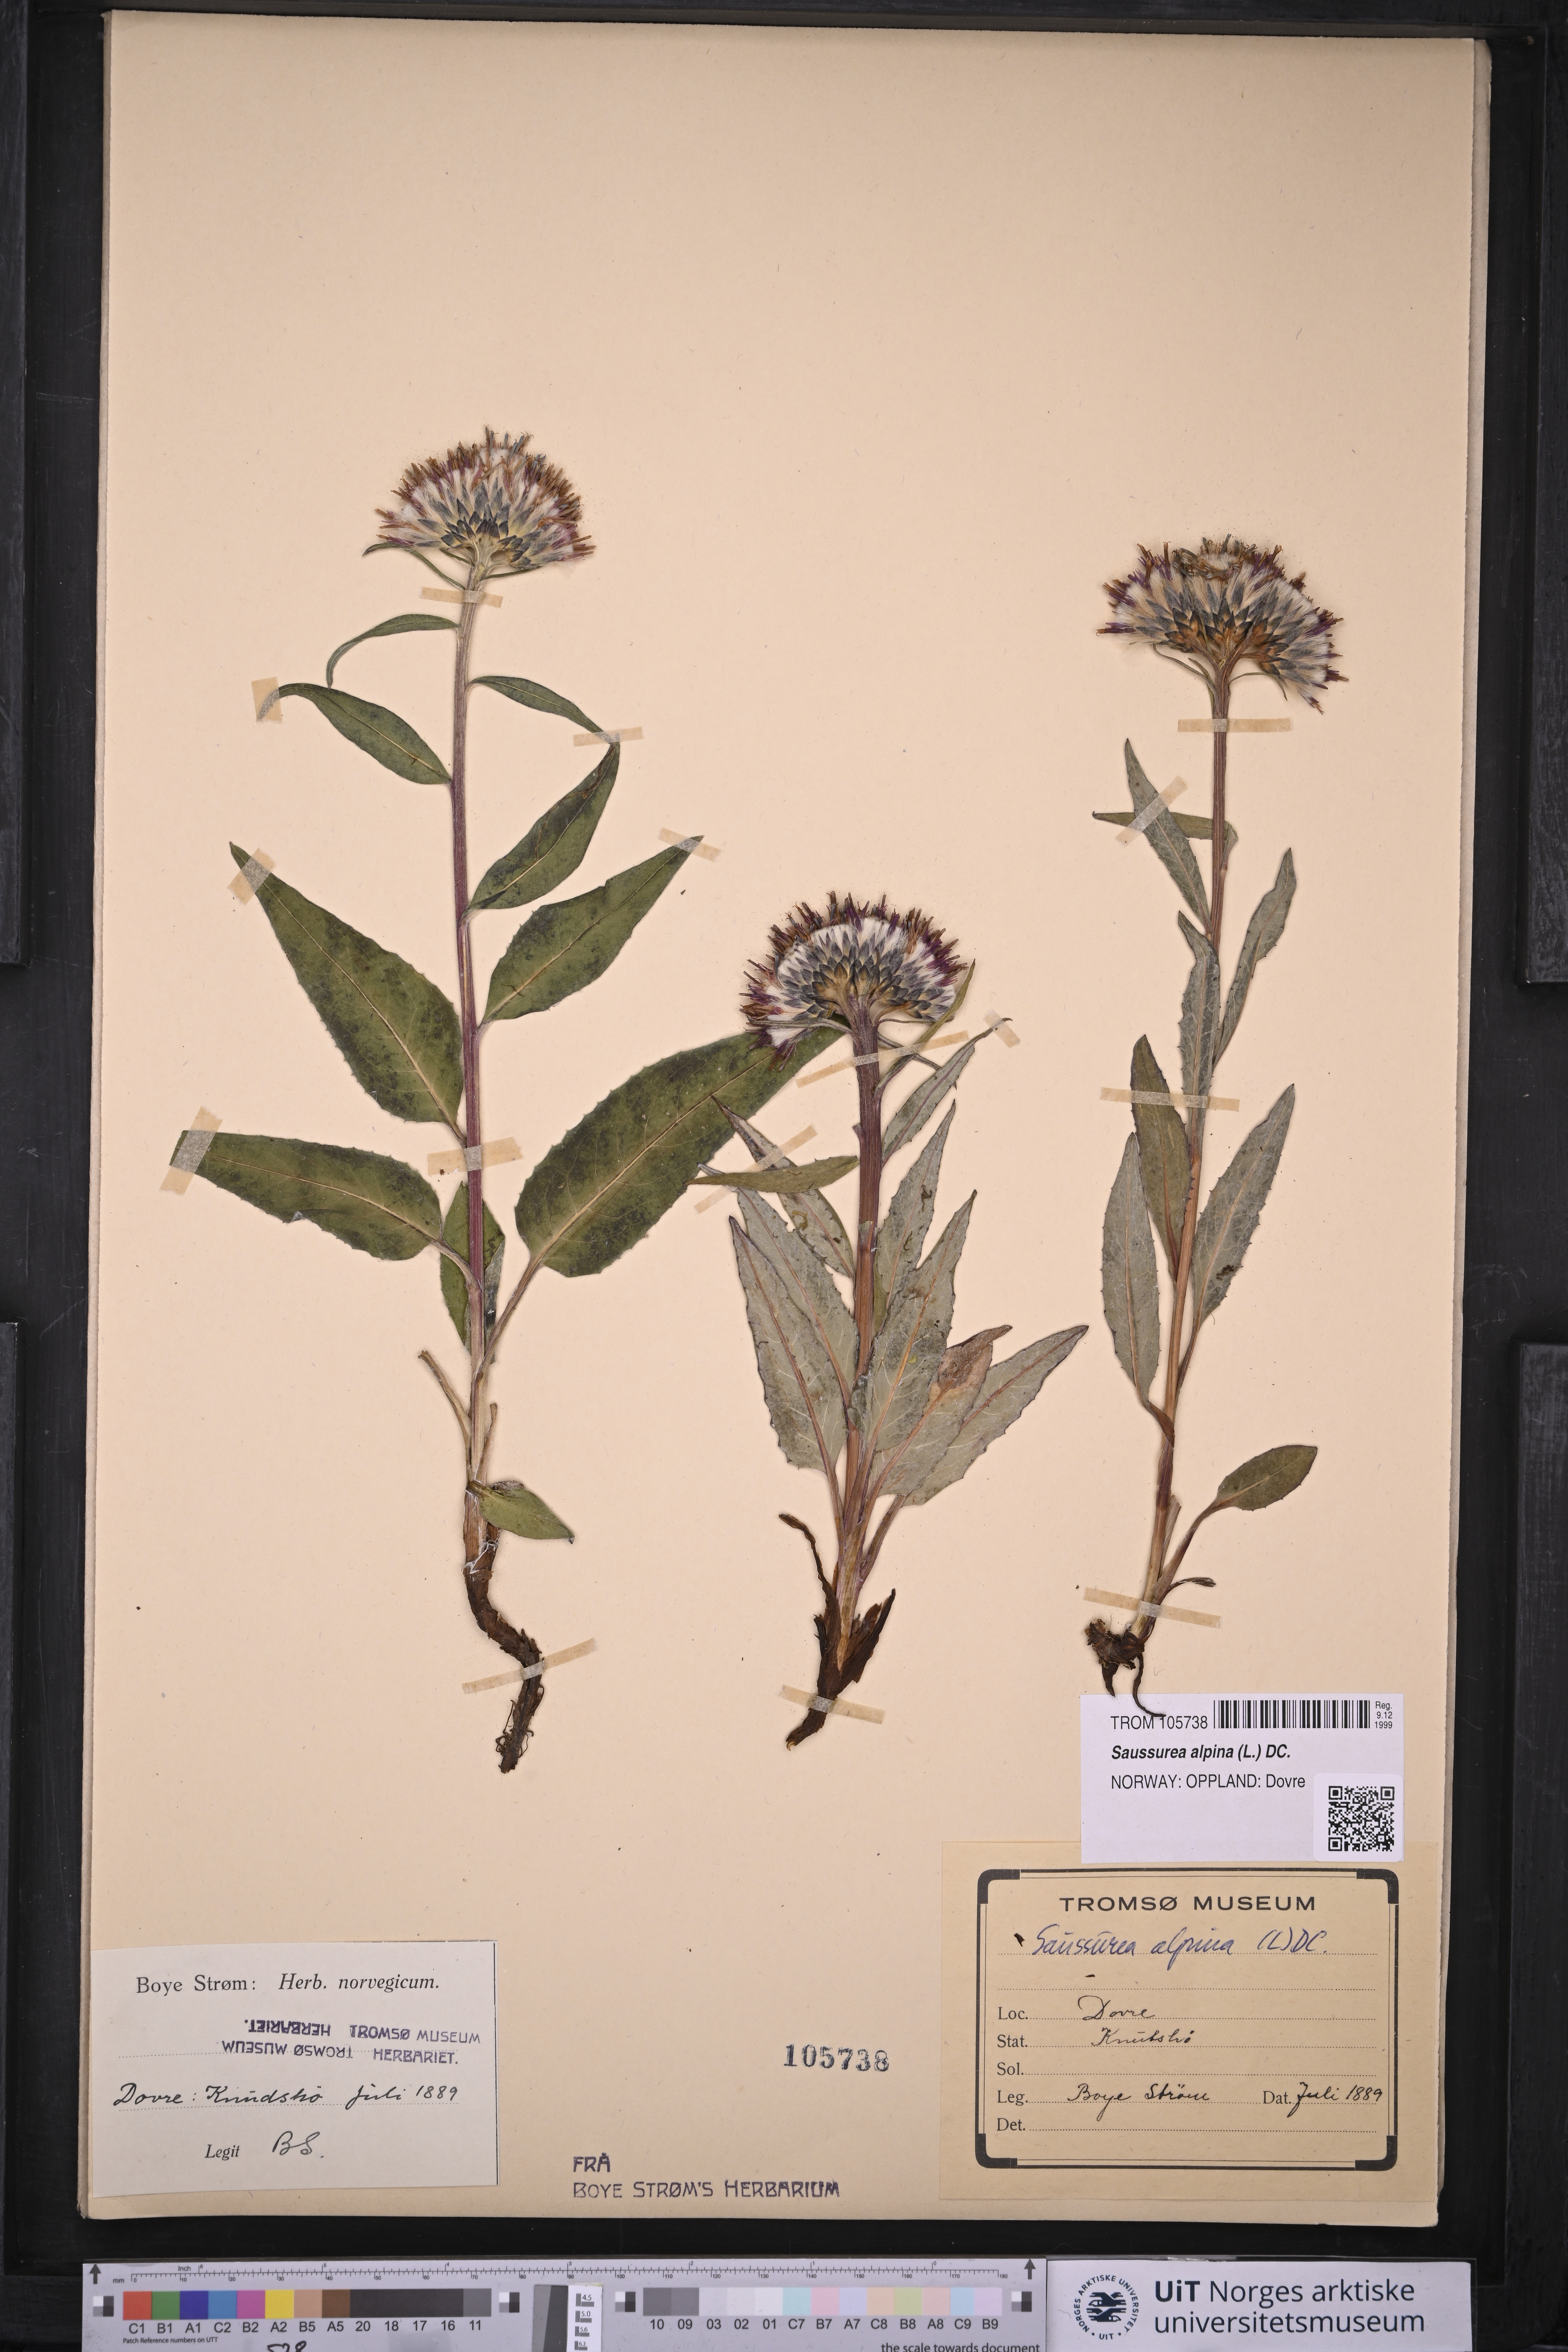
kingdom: Plantae
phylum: Tracheophyta
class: Magnoliopsida
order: Asterales
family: Asteraceae
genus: Saussurea
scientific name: Saussurea alpina
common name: Alpine saw-wort
